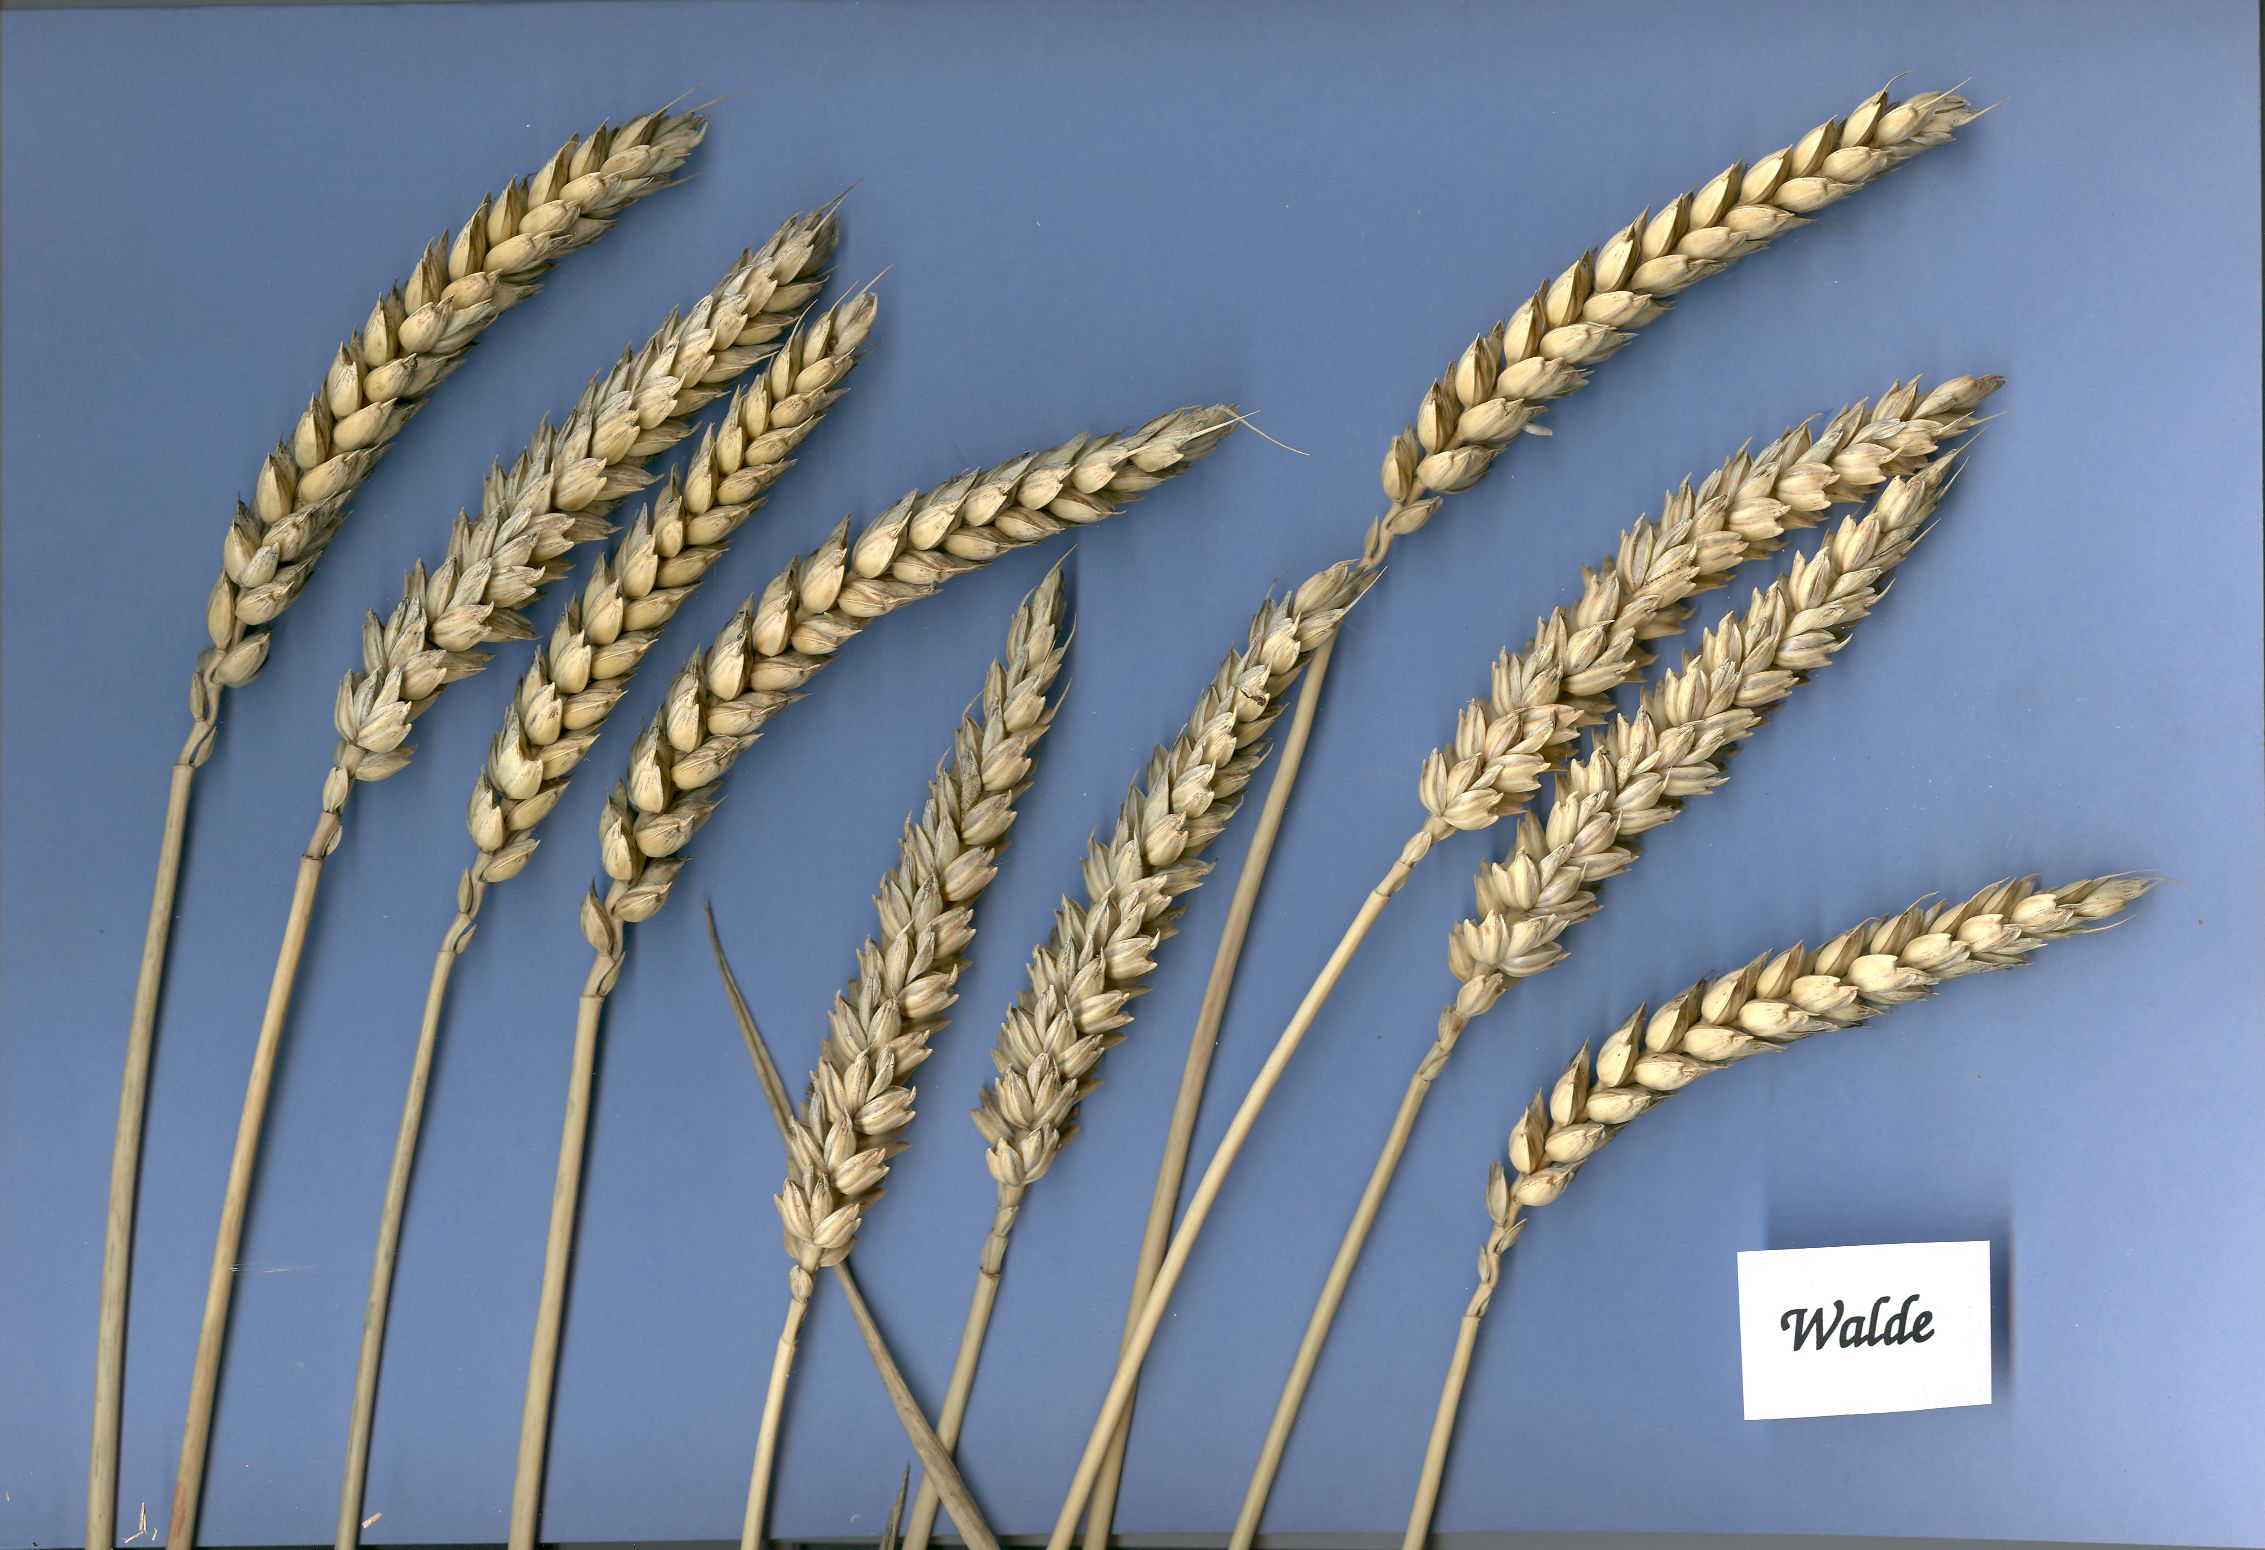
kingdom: Plantae
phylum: Tracheophyta
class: Liliopsida
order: Poales
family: Poaceae
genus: Triticum
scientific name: Triticum aestivum
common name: Common wheat
